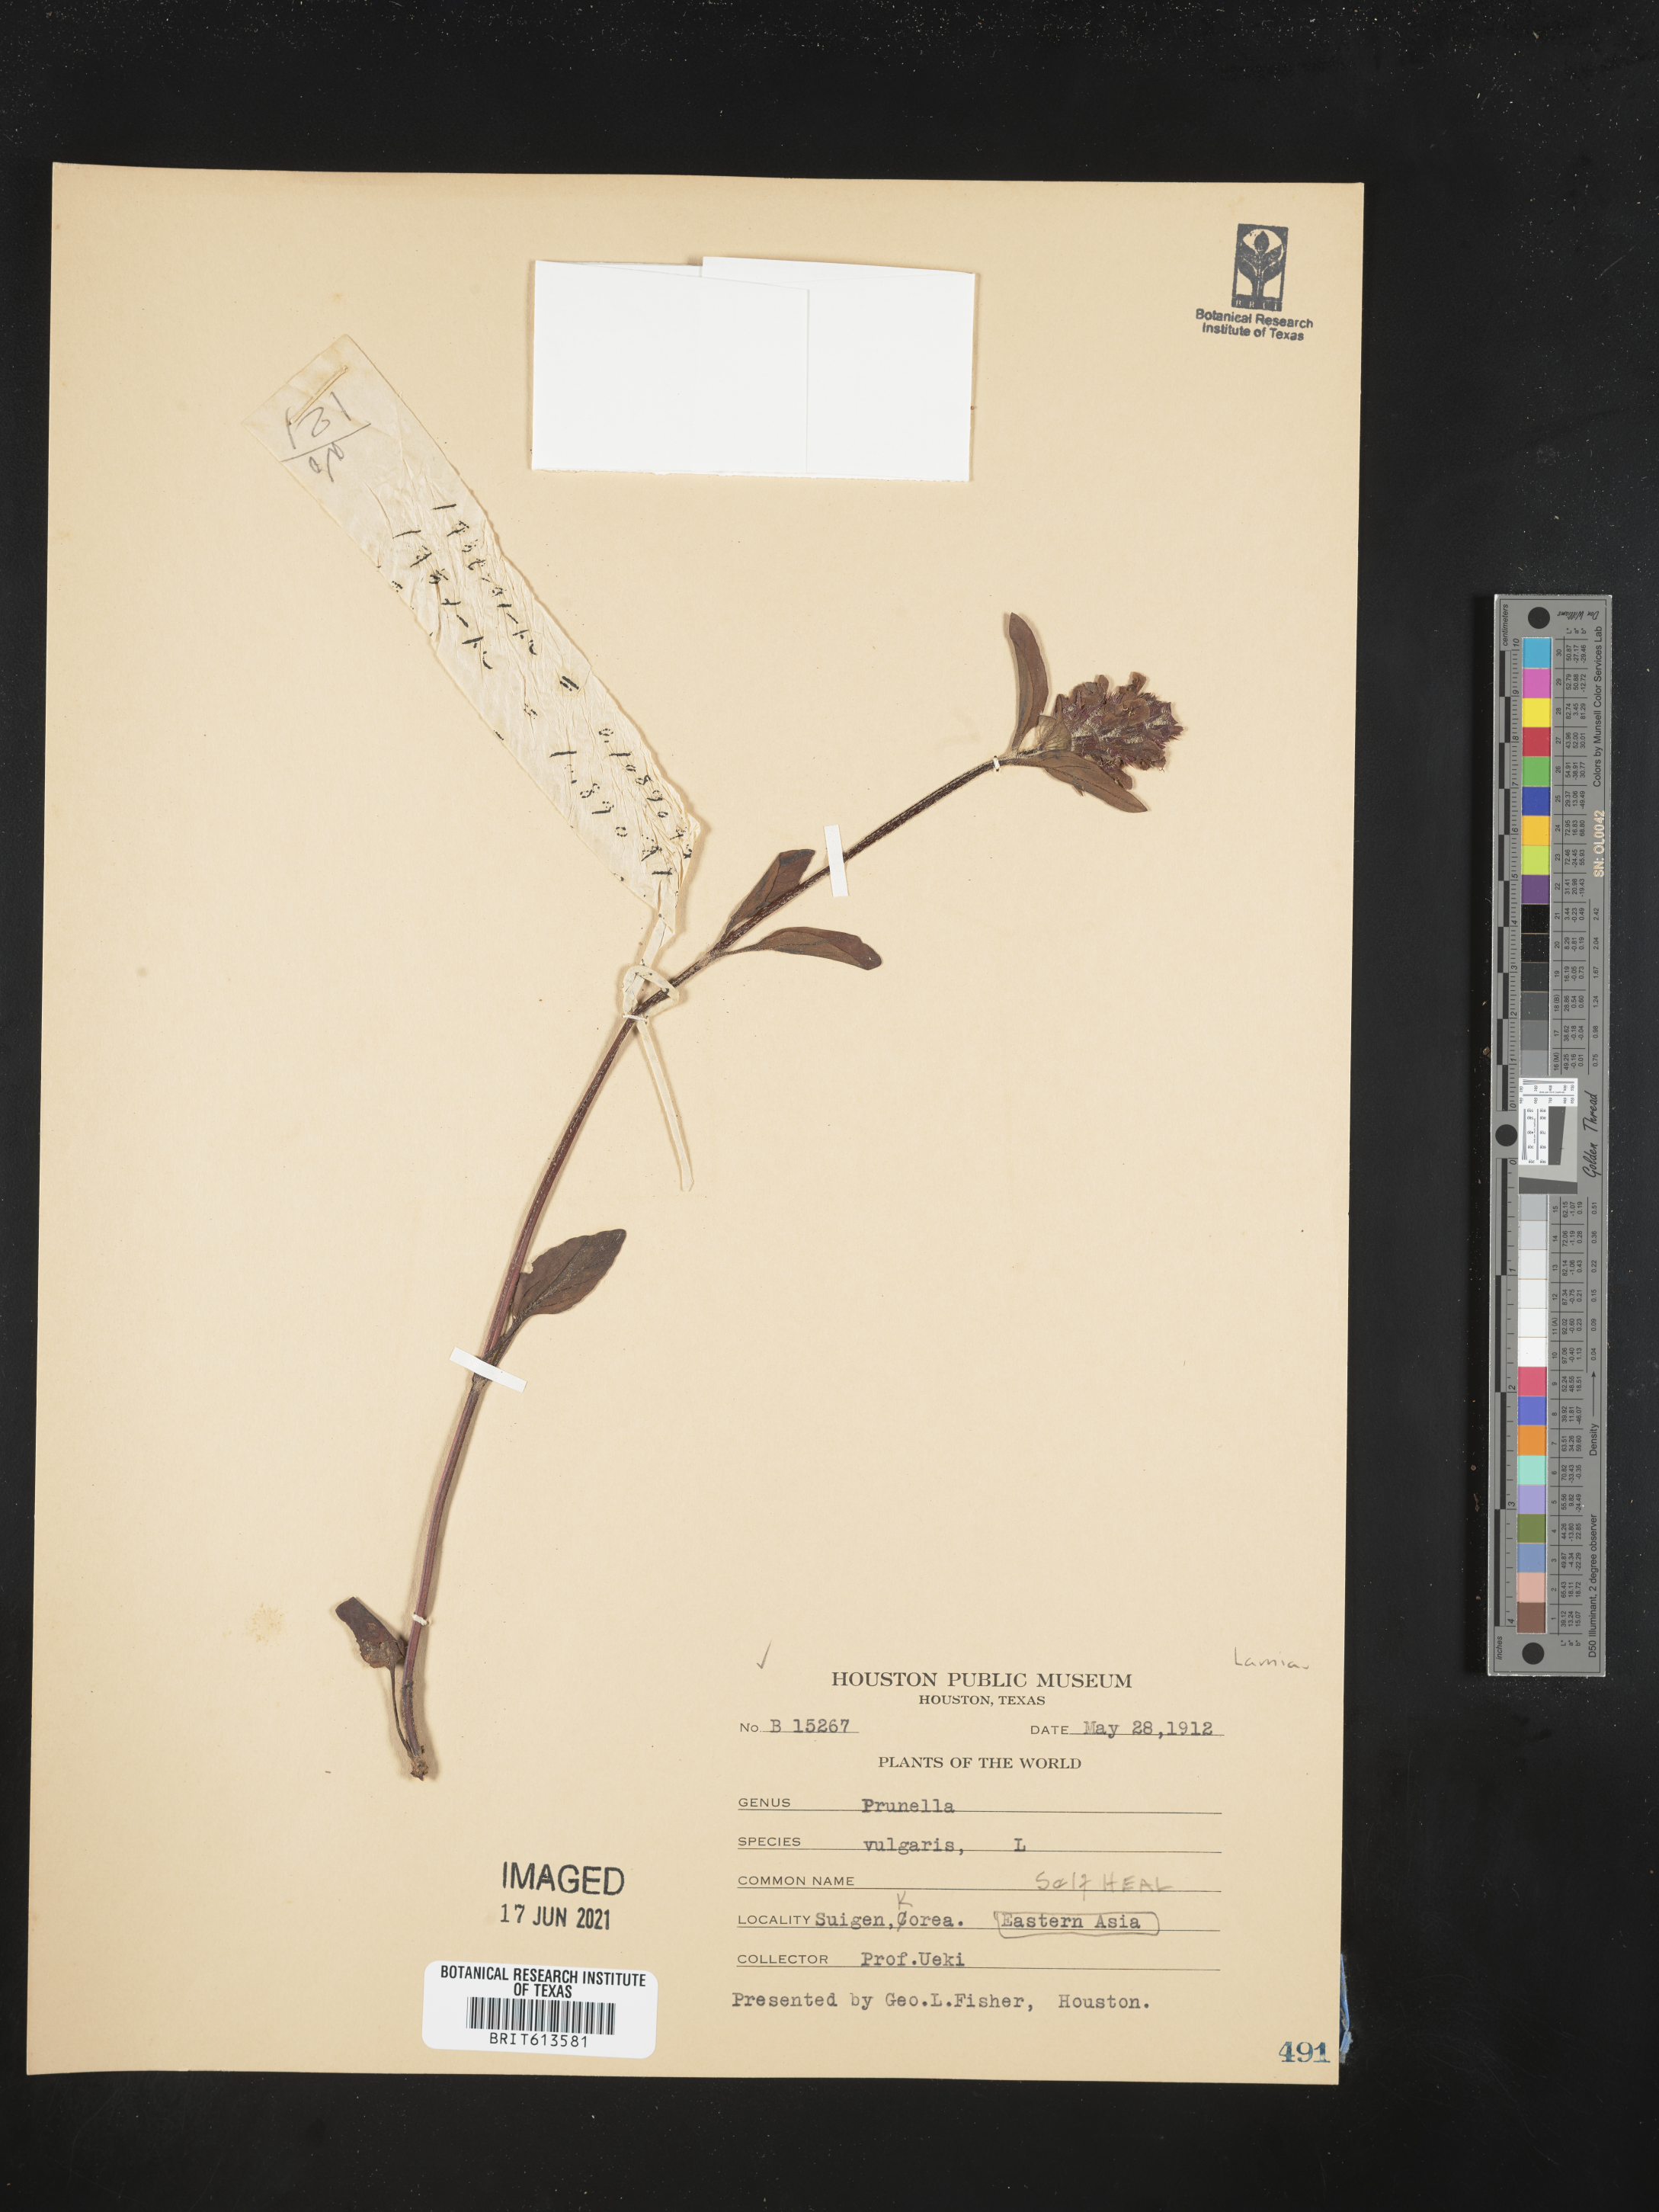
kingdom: Plantae
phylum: Tracheophyta
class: Magnoliopsida
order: Lamiales
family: Lamiaceae
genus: Prunella
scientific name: Prunella vulgaris
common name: Heal-all
